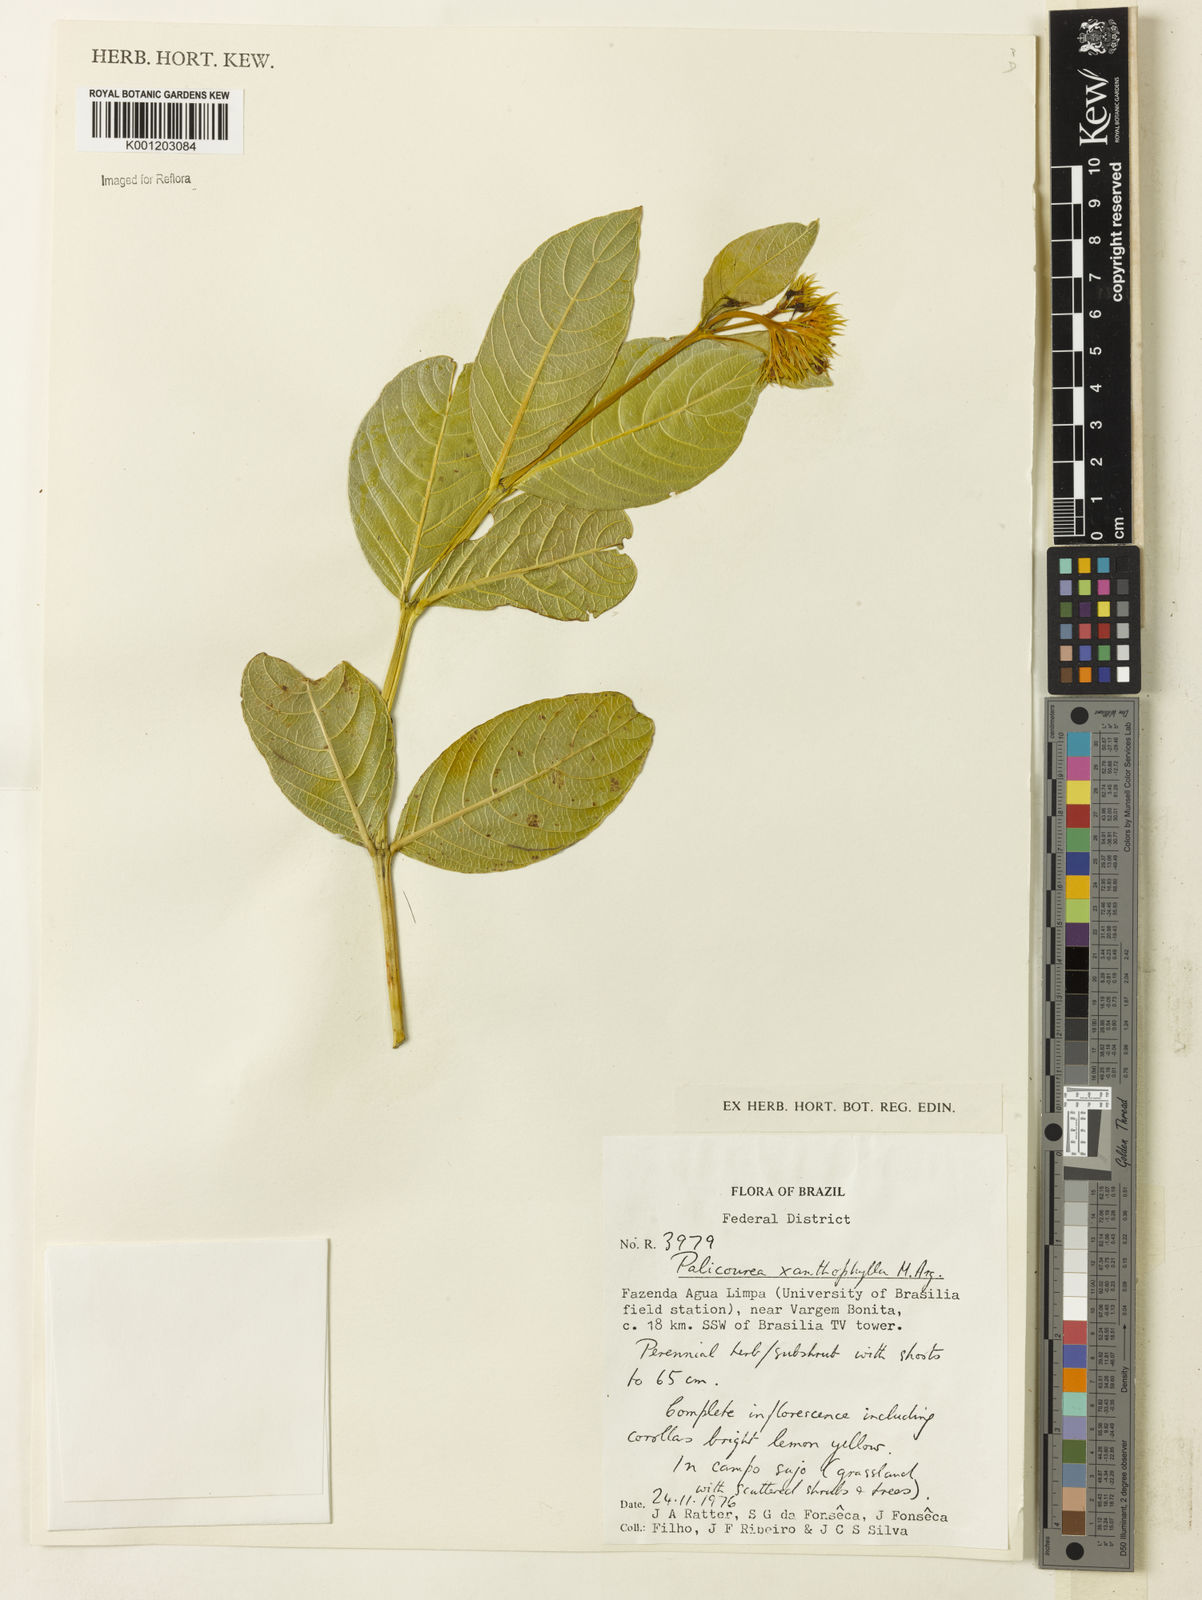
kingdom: Plantae
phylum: Tracheophyta
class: Magnoliopsida
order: Gentianales
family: Rubiaceae
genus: Palicourea
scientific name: Palicourea coriacea
